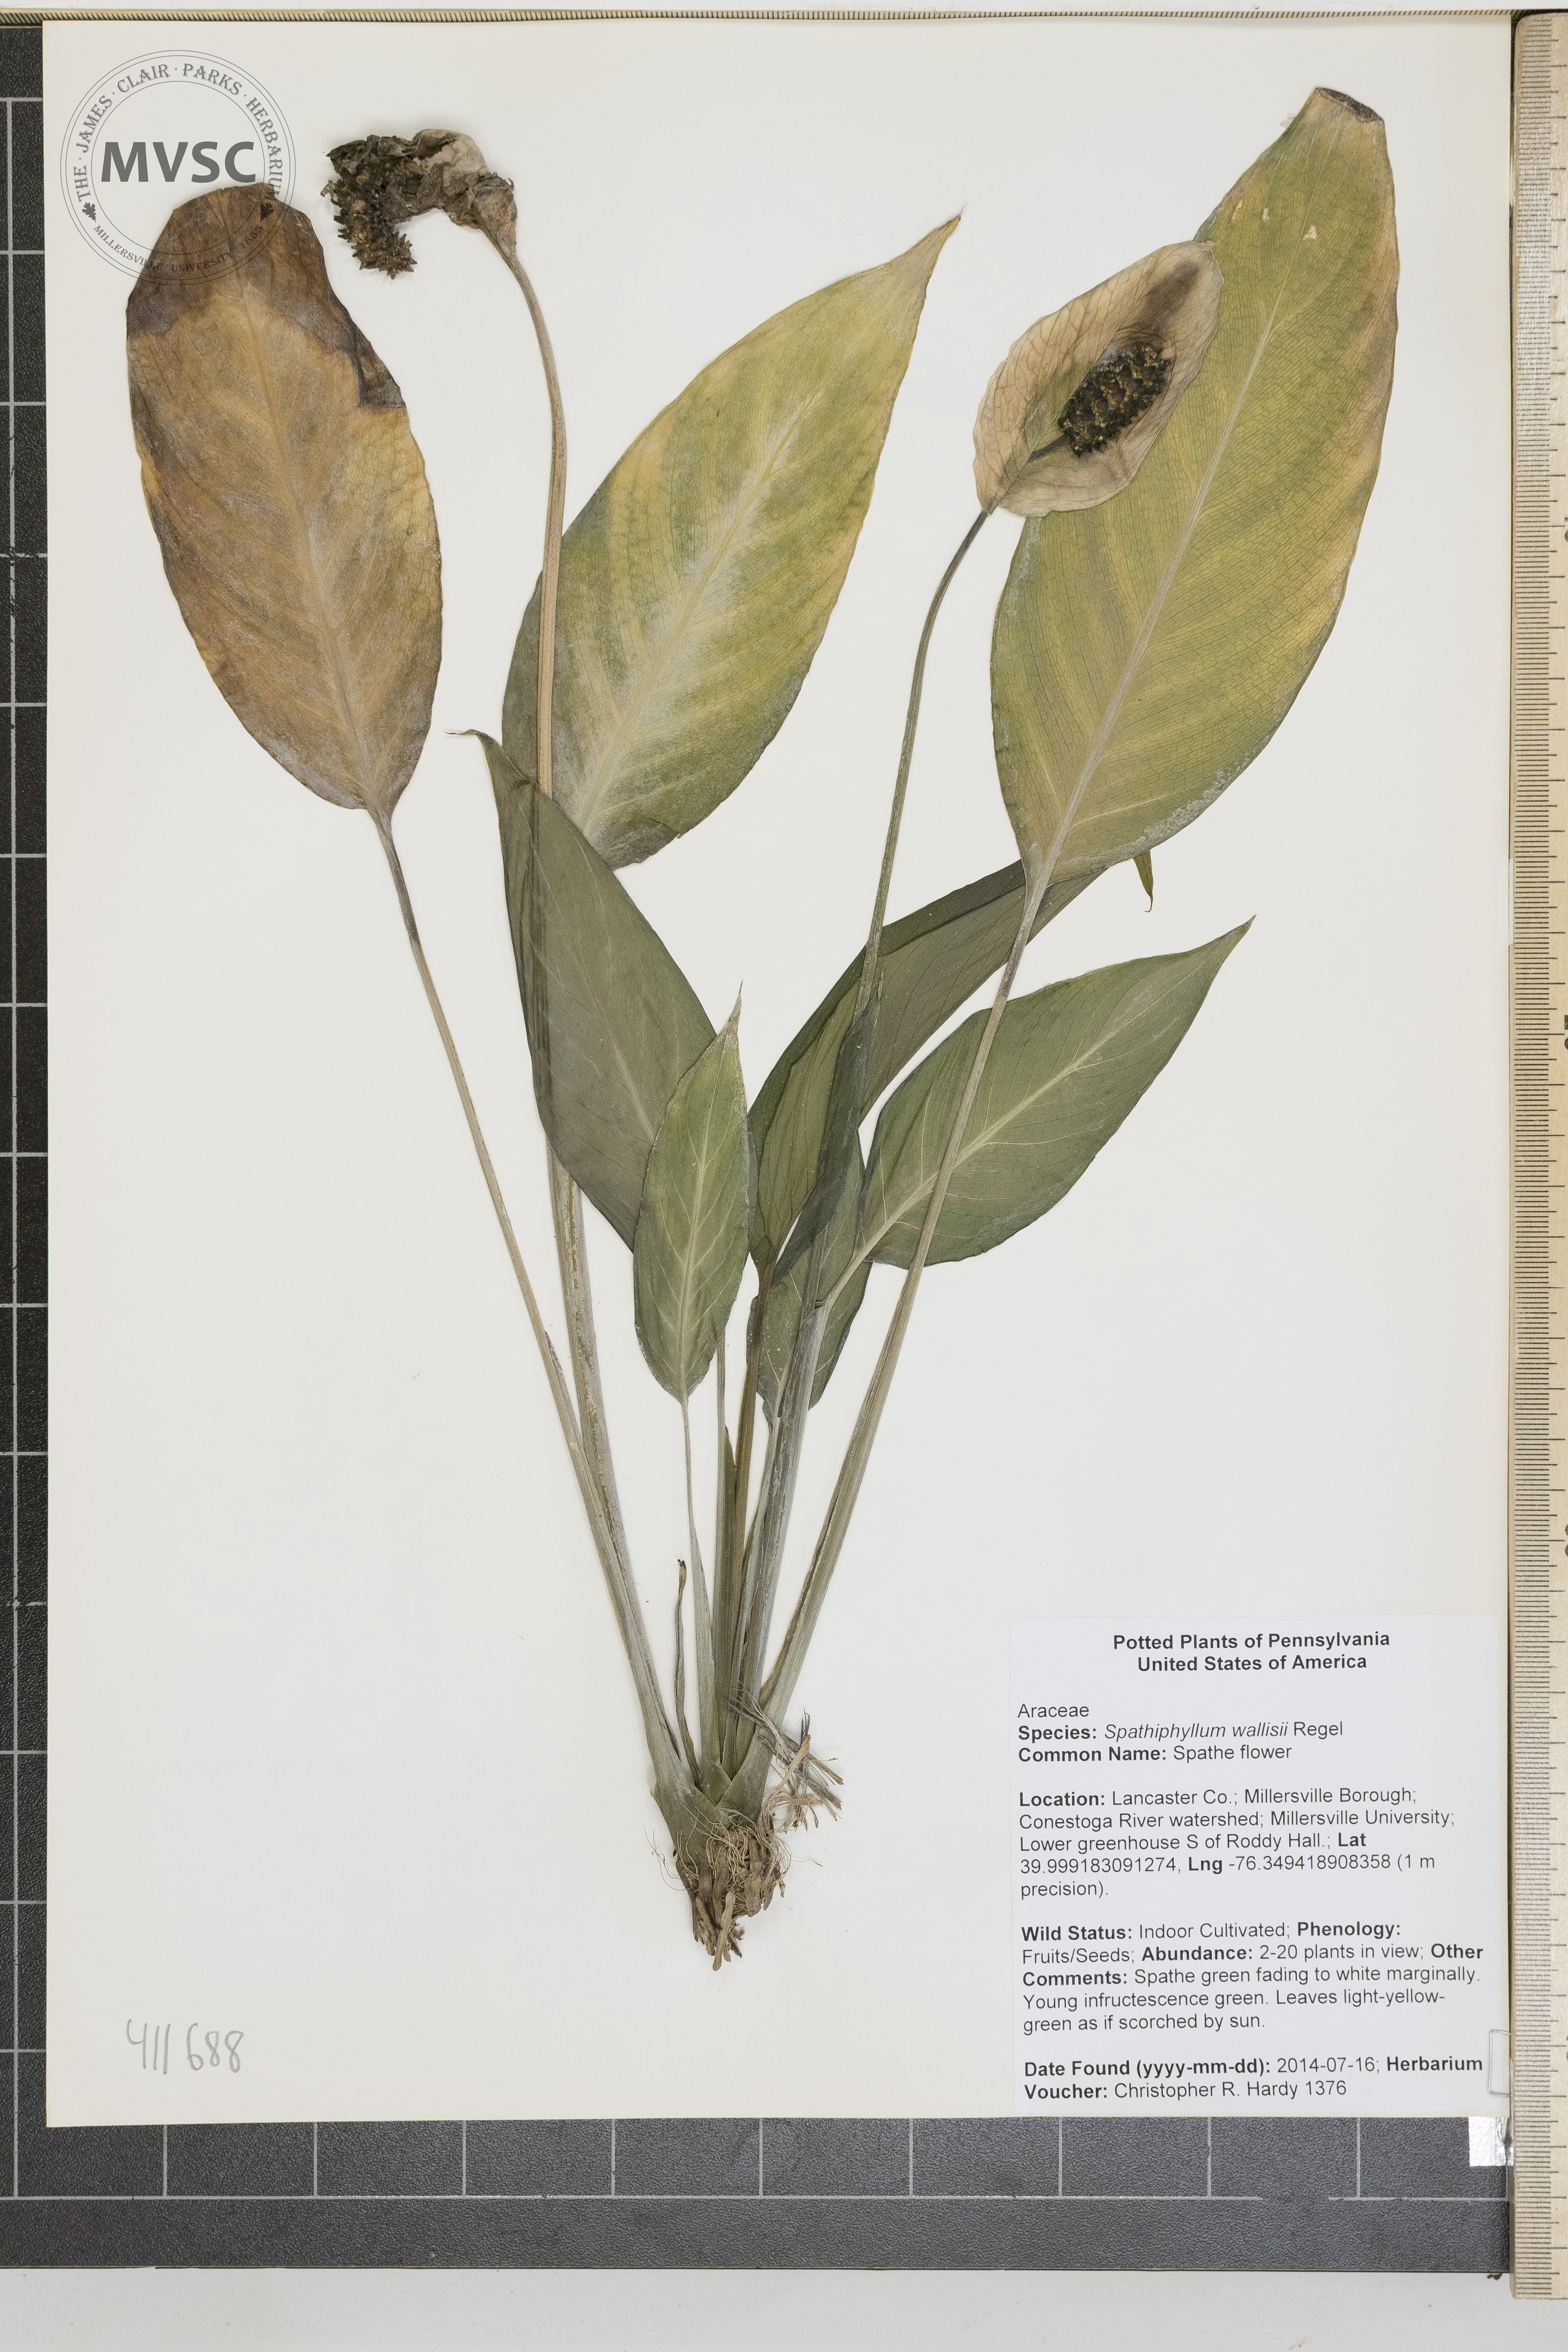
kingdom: Plantae
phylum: Tracheophyta
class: Liliopsida
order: Alismatales
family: Araceae
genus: Spathiphyllum
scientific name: Spathiphyllum wallisii
